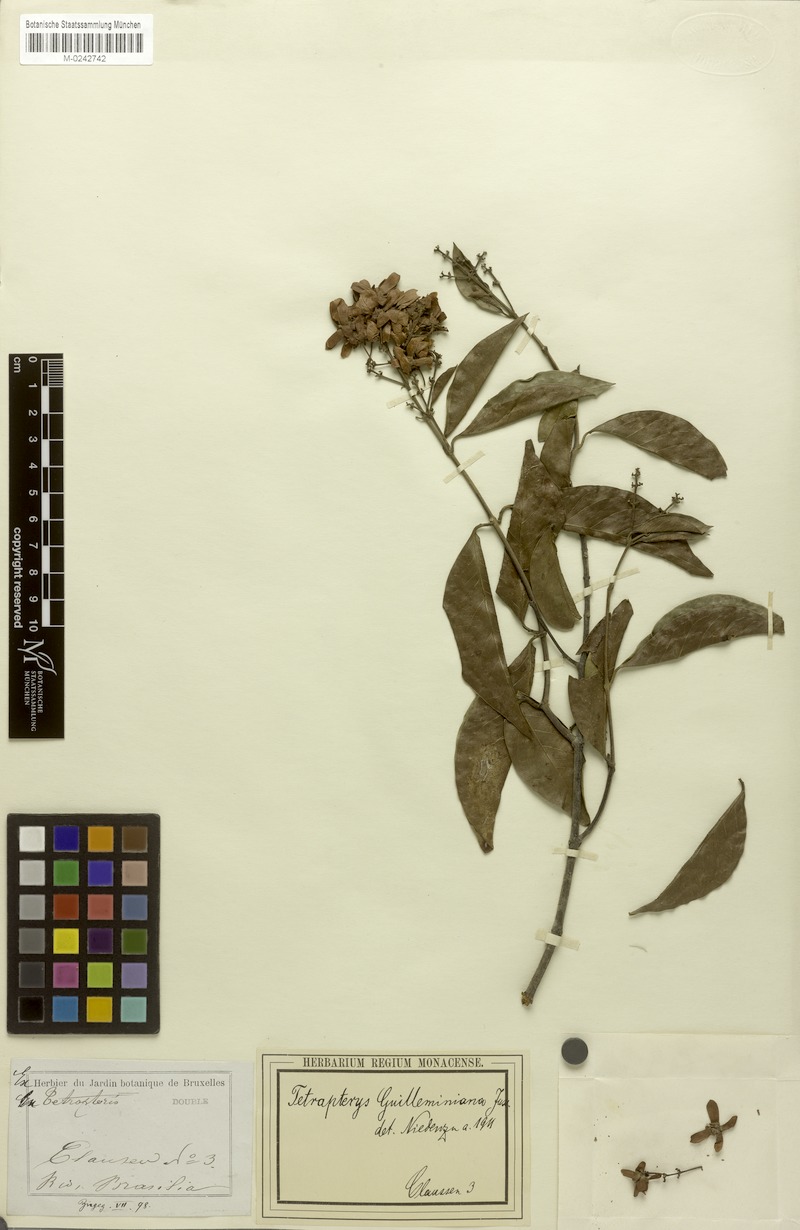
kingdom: Plantae
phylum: Tracheophyta
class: Magnoliopsida
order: Malpighiales
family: Malpighiaceae
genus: Niedenzuella
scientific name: Niedenzuella acutifolia
